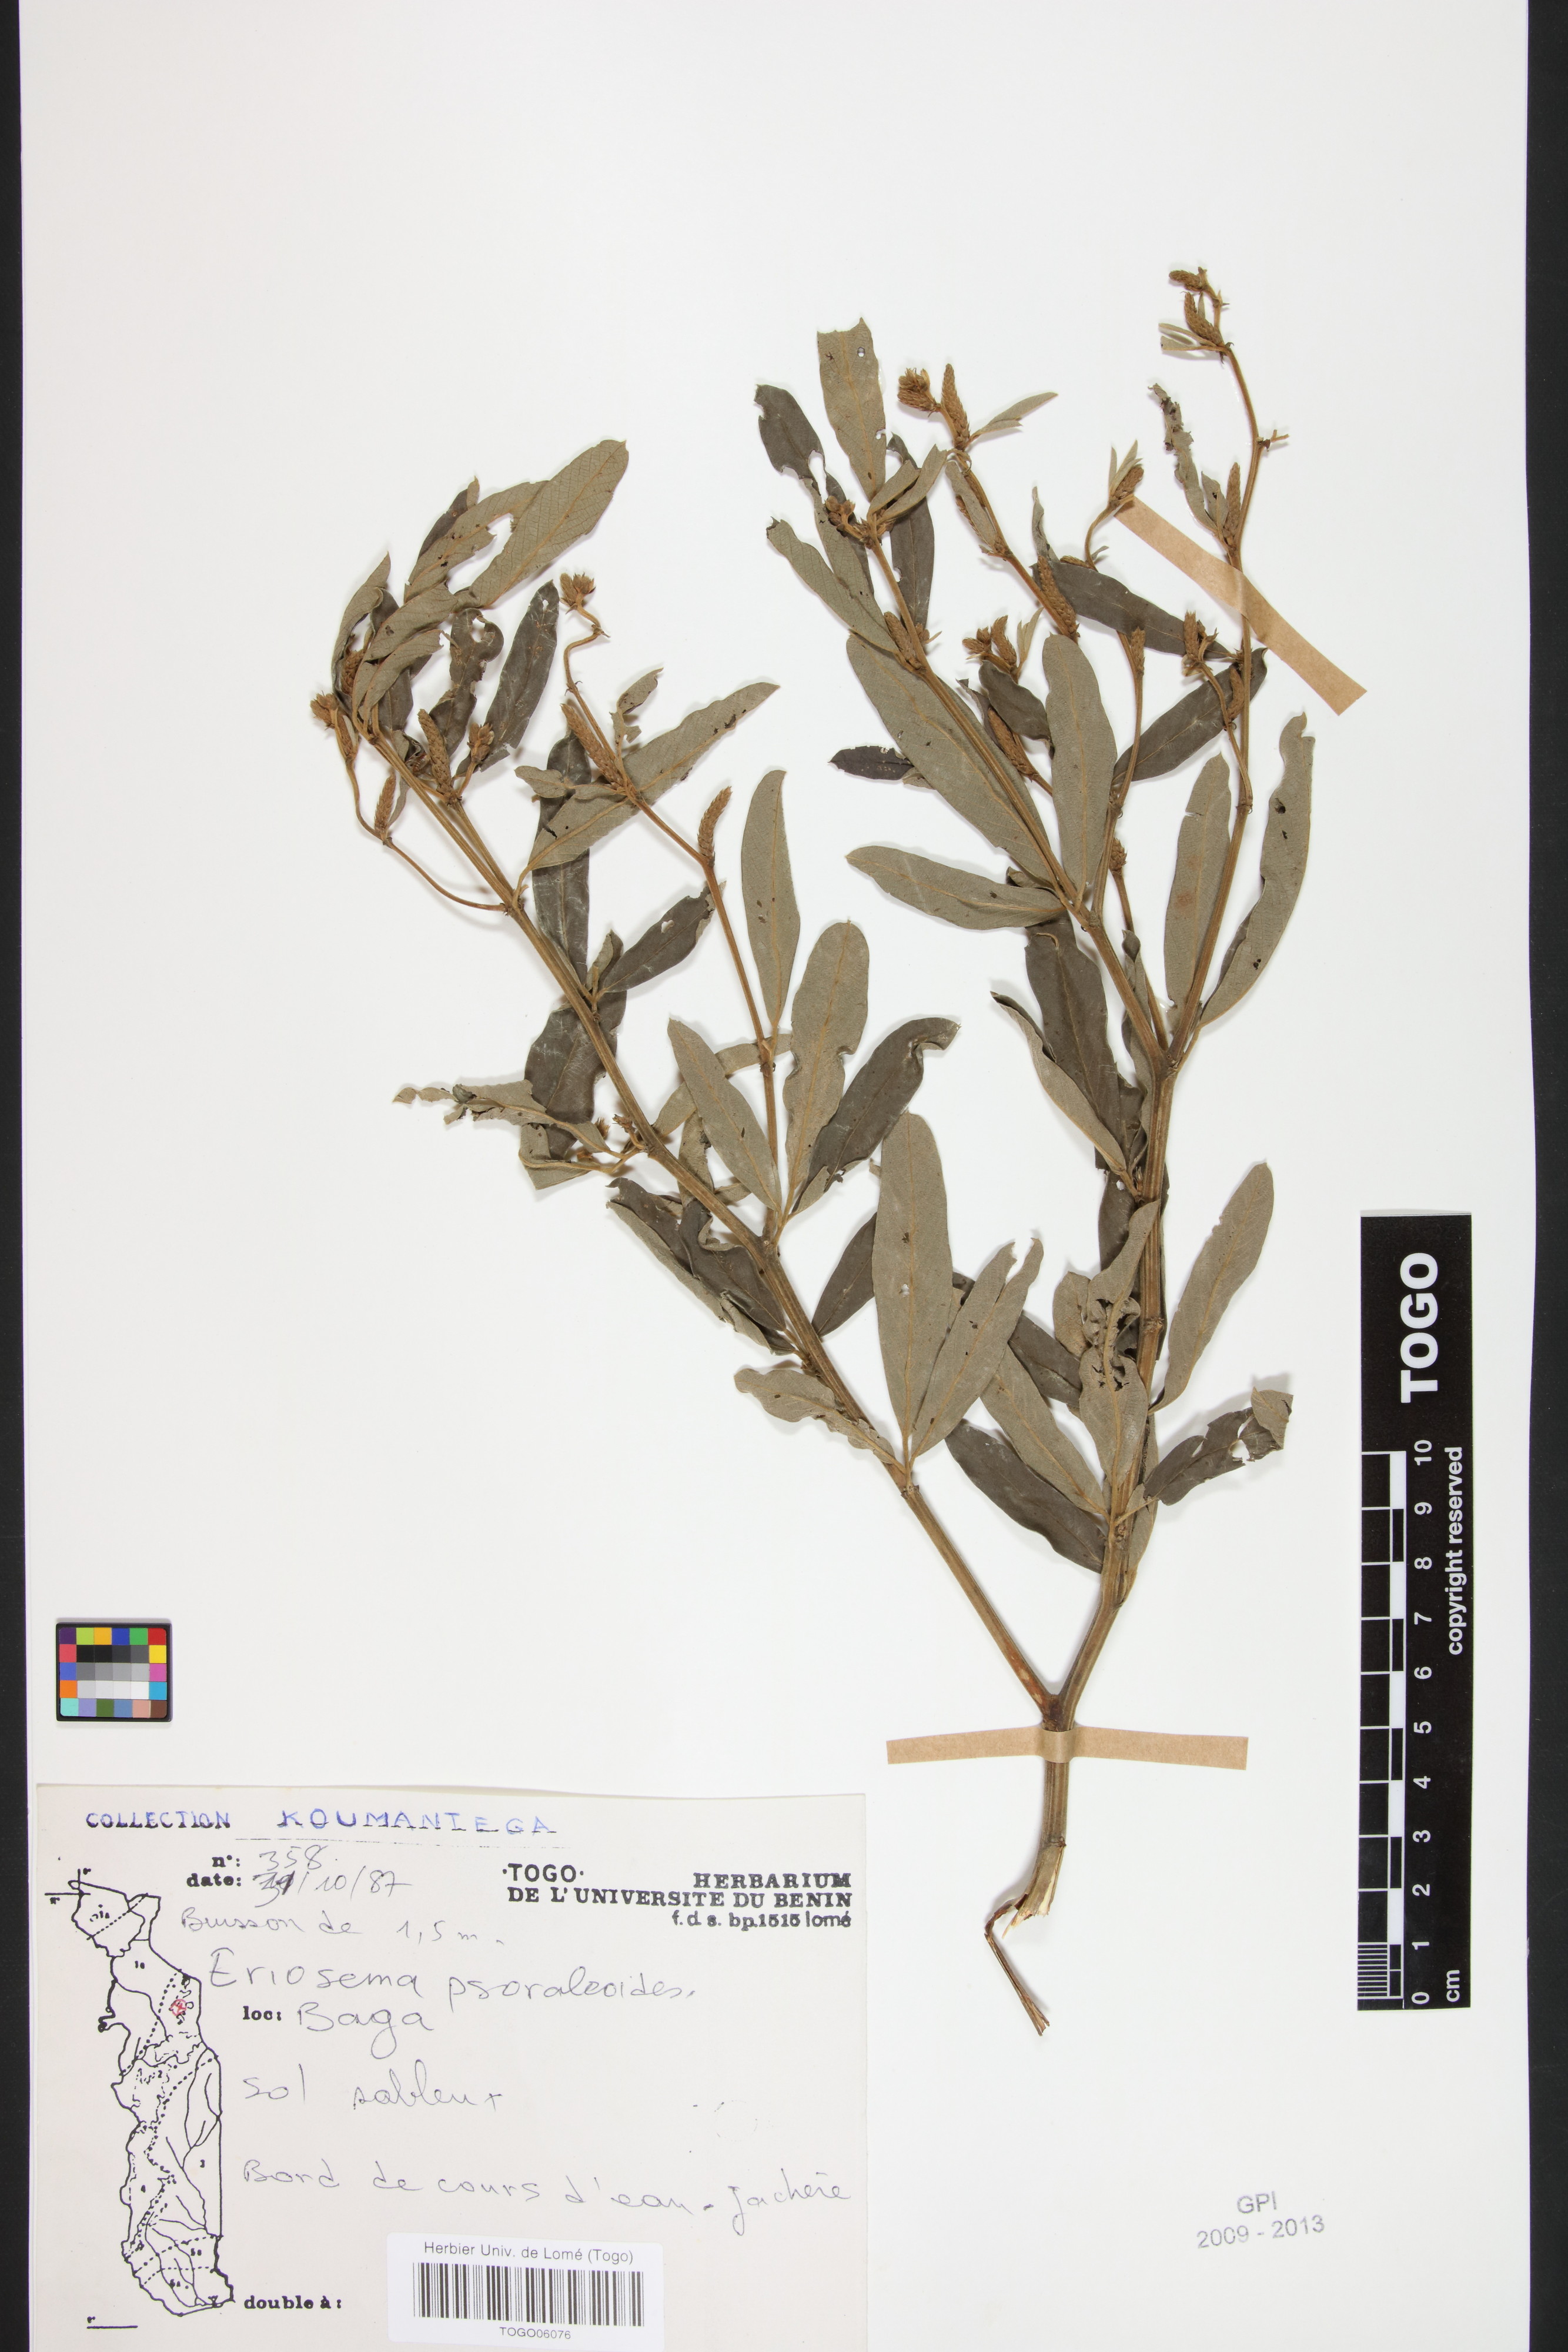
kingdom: Plantae
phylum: Tracheophyta
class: Magnoliopsida
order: Fabales
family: Fabaceae
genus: Eriosema
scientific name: Eriosema psoraleoides
